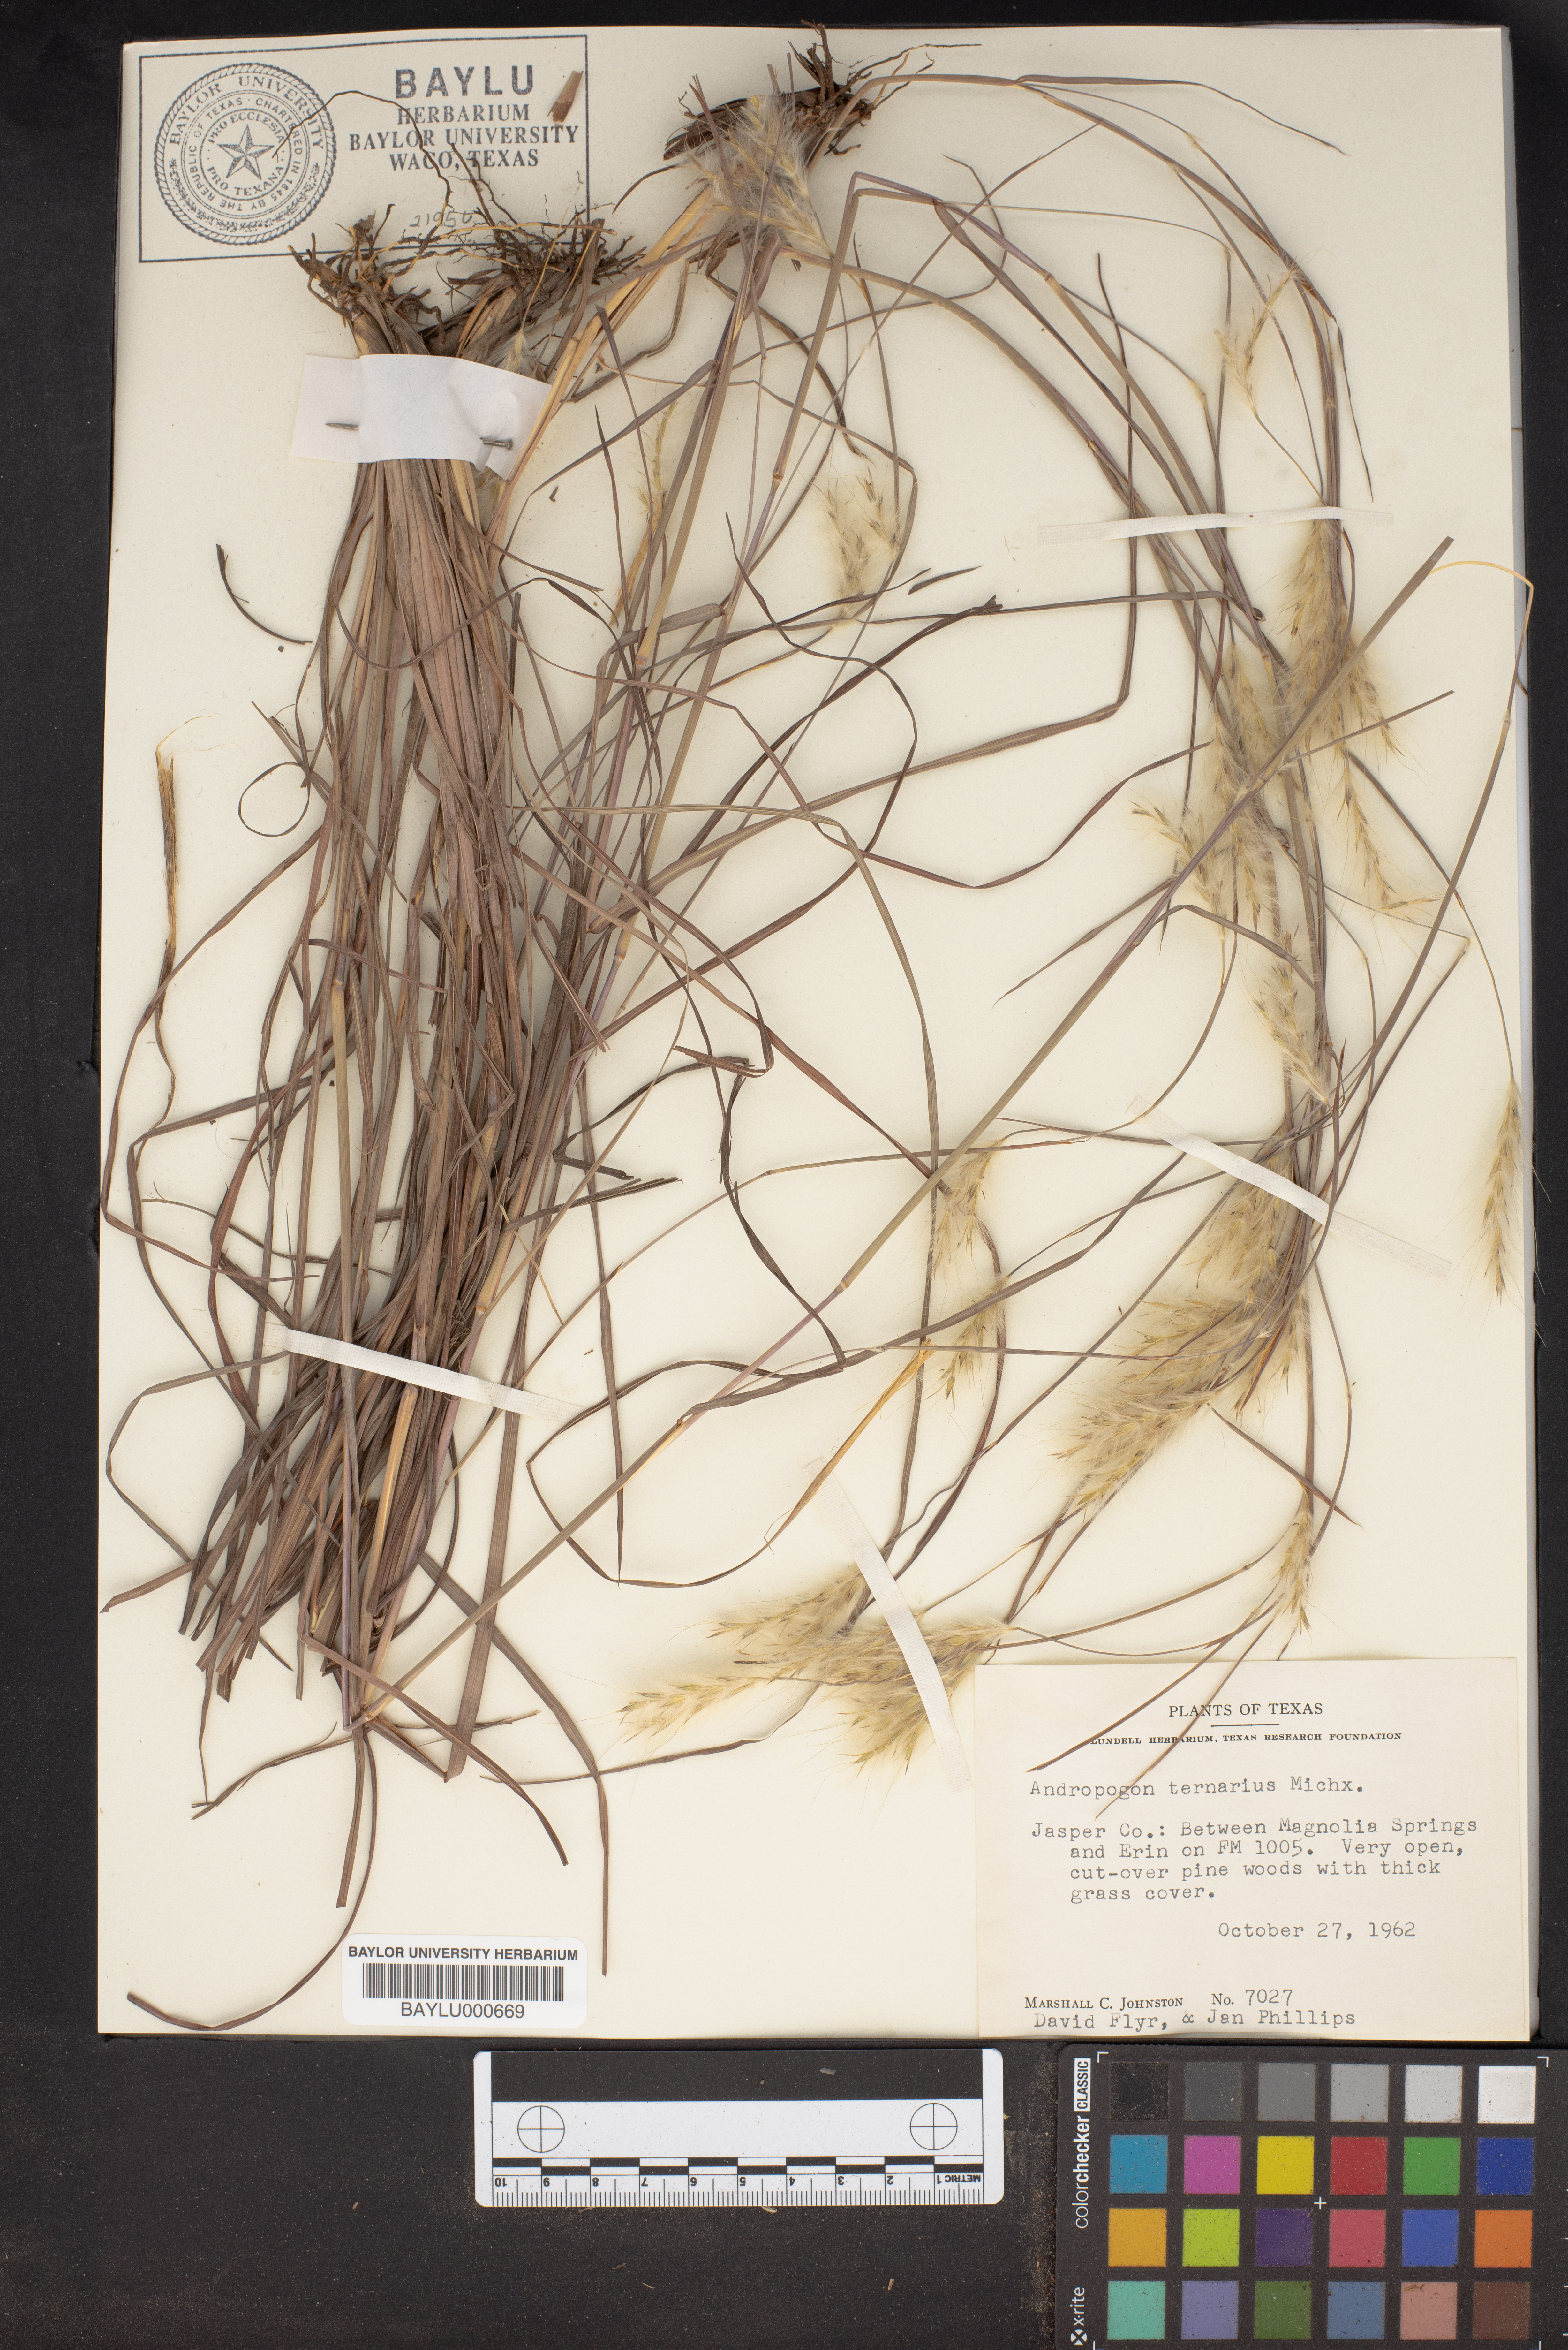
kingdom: Plantae
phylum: Tracheophyta
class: Liliopsida
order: Poales
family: Poaceae
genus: Andropogon
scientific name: Andropogon ternarius
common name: Split bluestem
